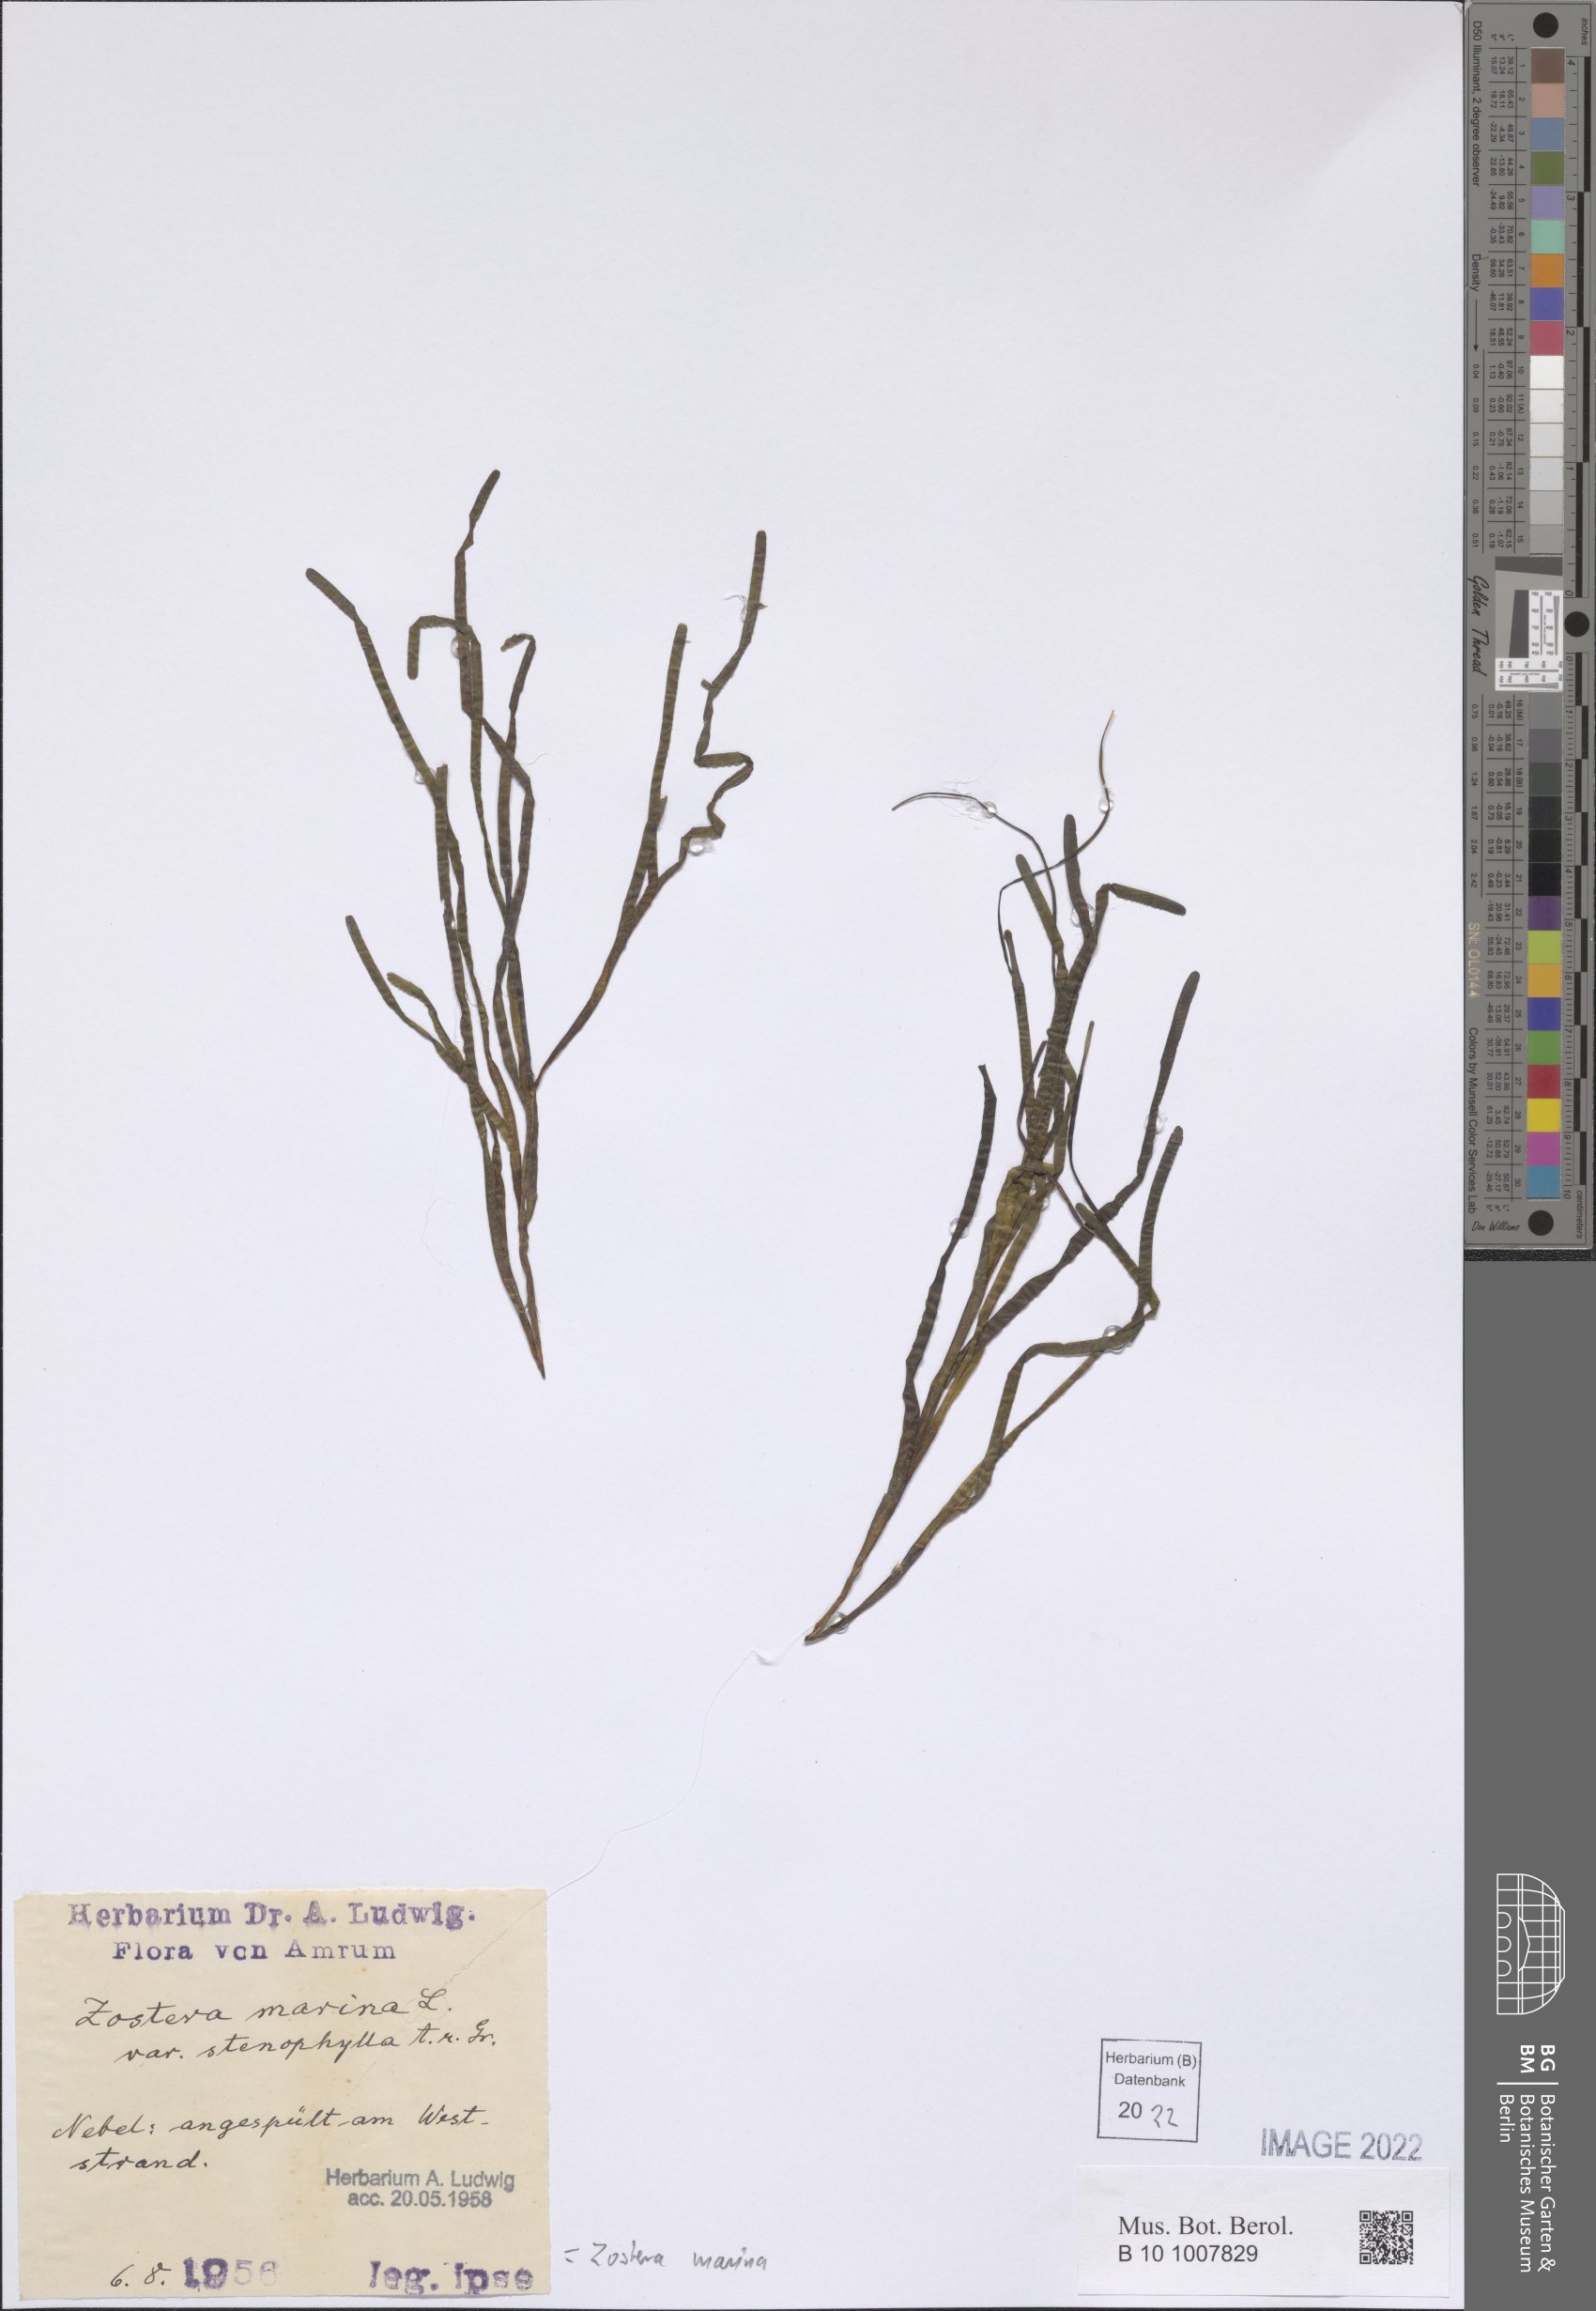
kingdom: Plantae
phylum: Tracheophyta
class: Liliopsida
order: Alismatales
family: Zosteraceae
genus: Zostera
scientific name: Zostera marina
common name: Eelgrass
